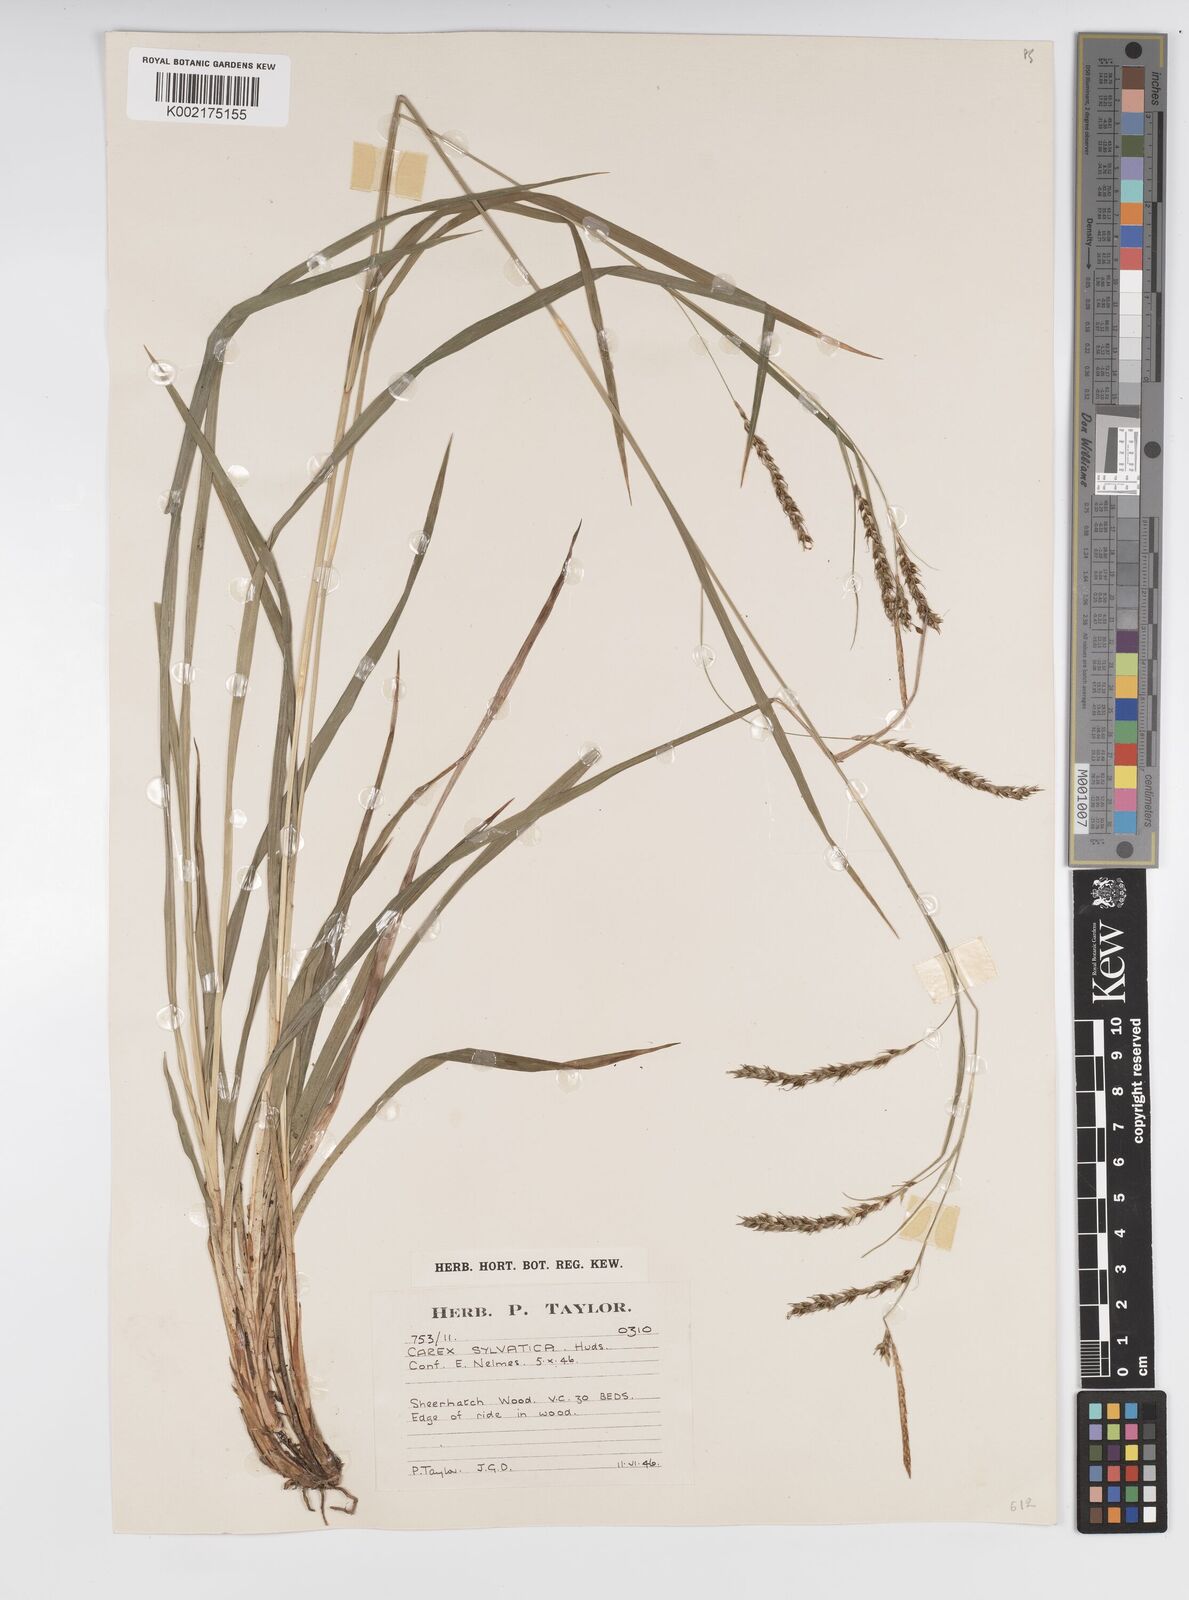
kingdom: Plantae
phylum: Tracheophyta
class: Liliopsida
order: Poales
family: Cyperaceae
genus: Carex
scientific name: Carex sylvatica
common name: Wood-sedge
